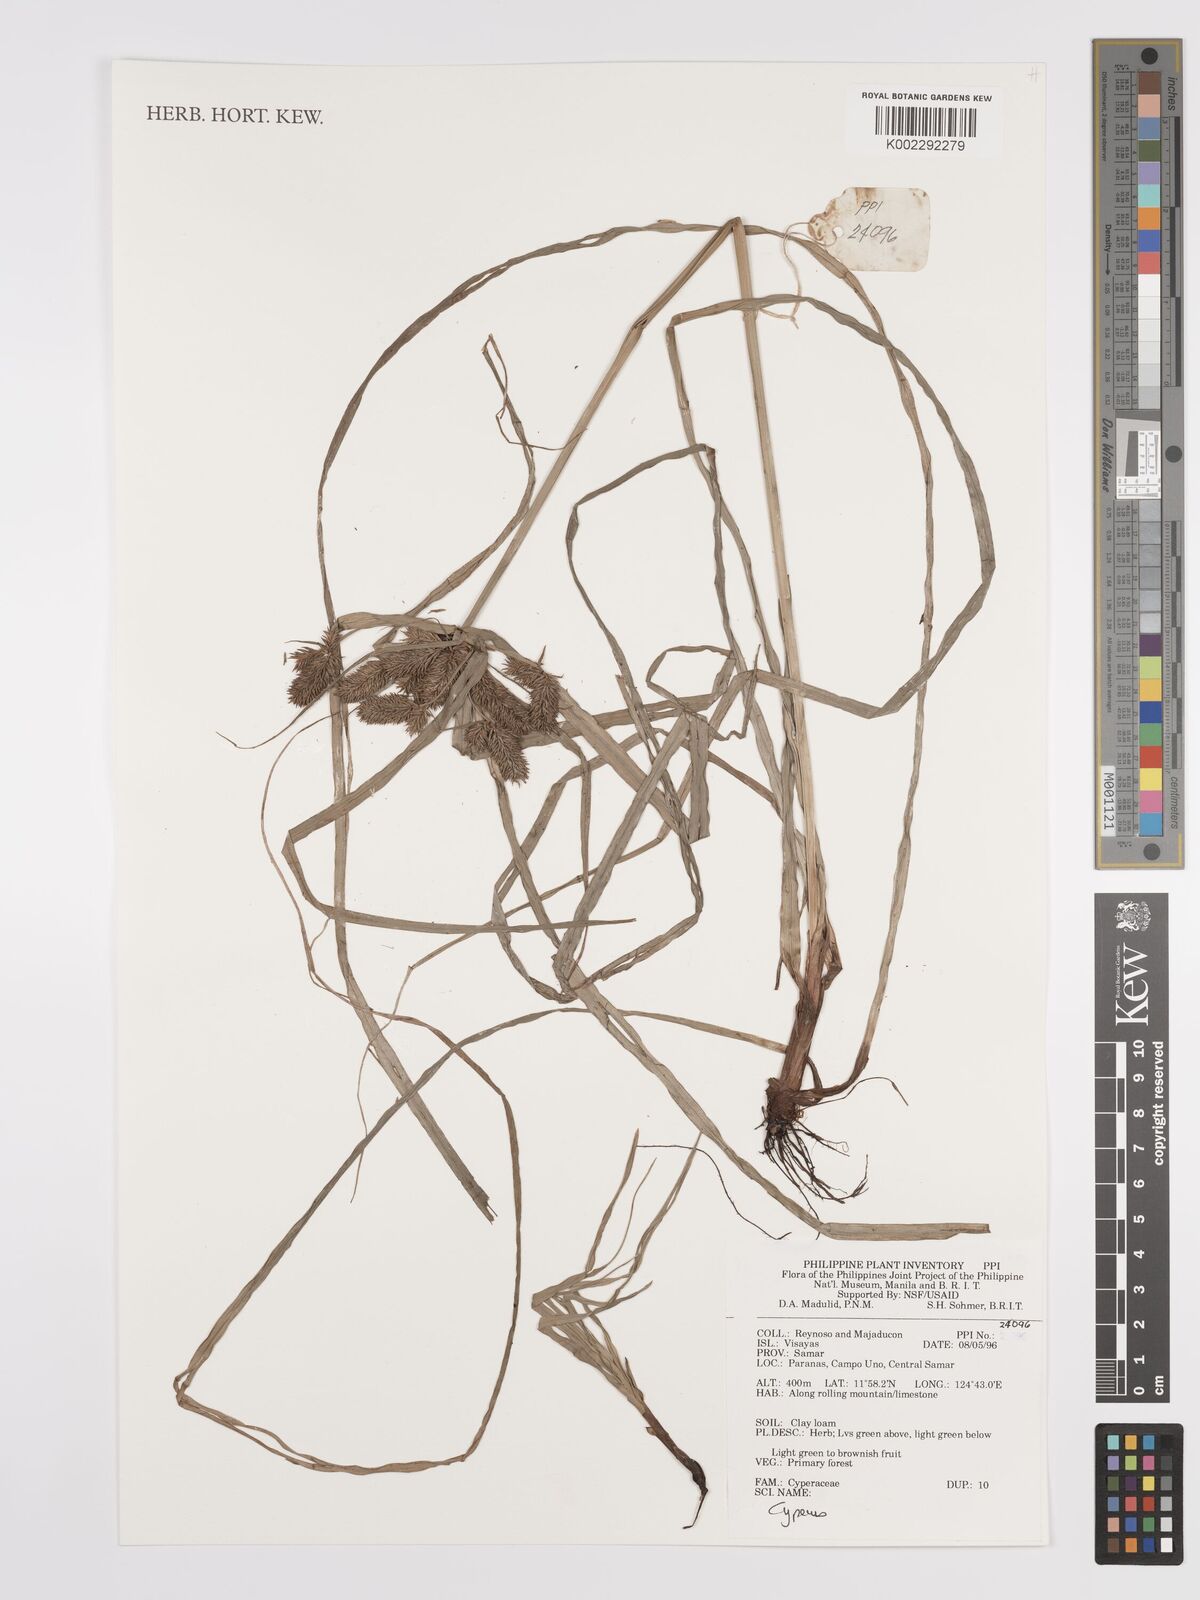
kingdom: Plantae
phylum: Tracheophyta
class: Liliopsida
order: Poales
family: Cyperaceae
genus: Cyperus
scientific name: Cyperus
